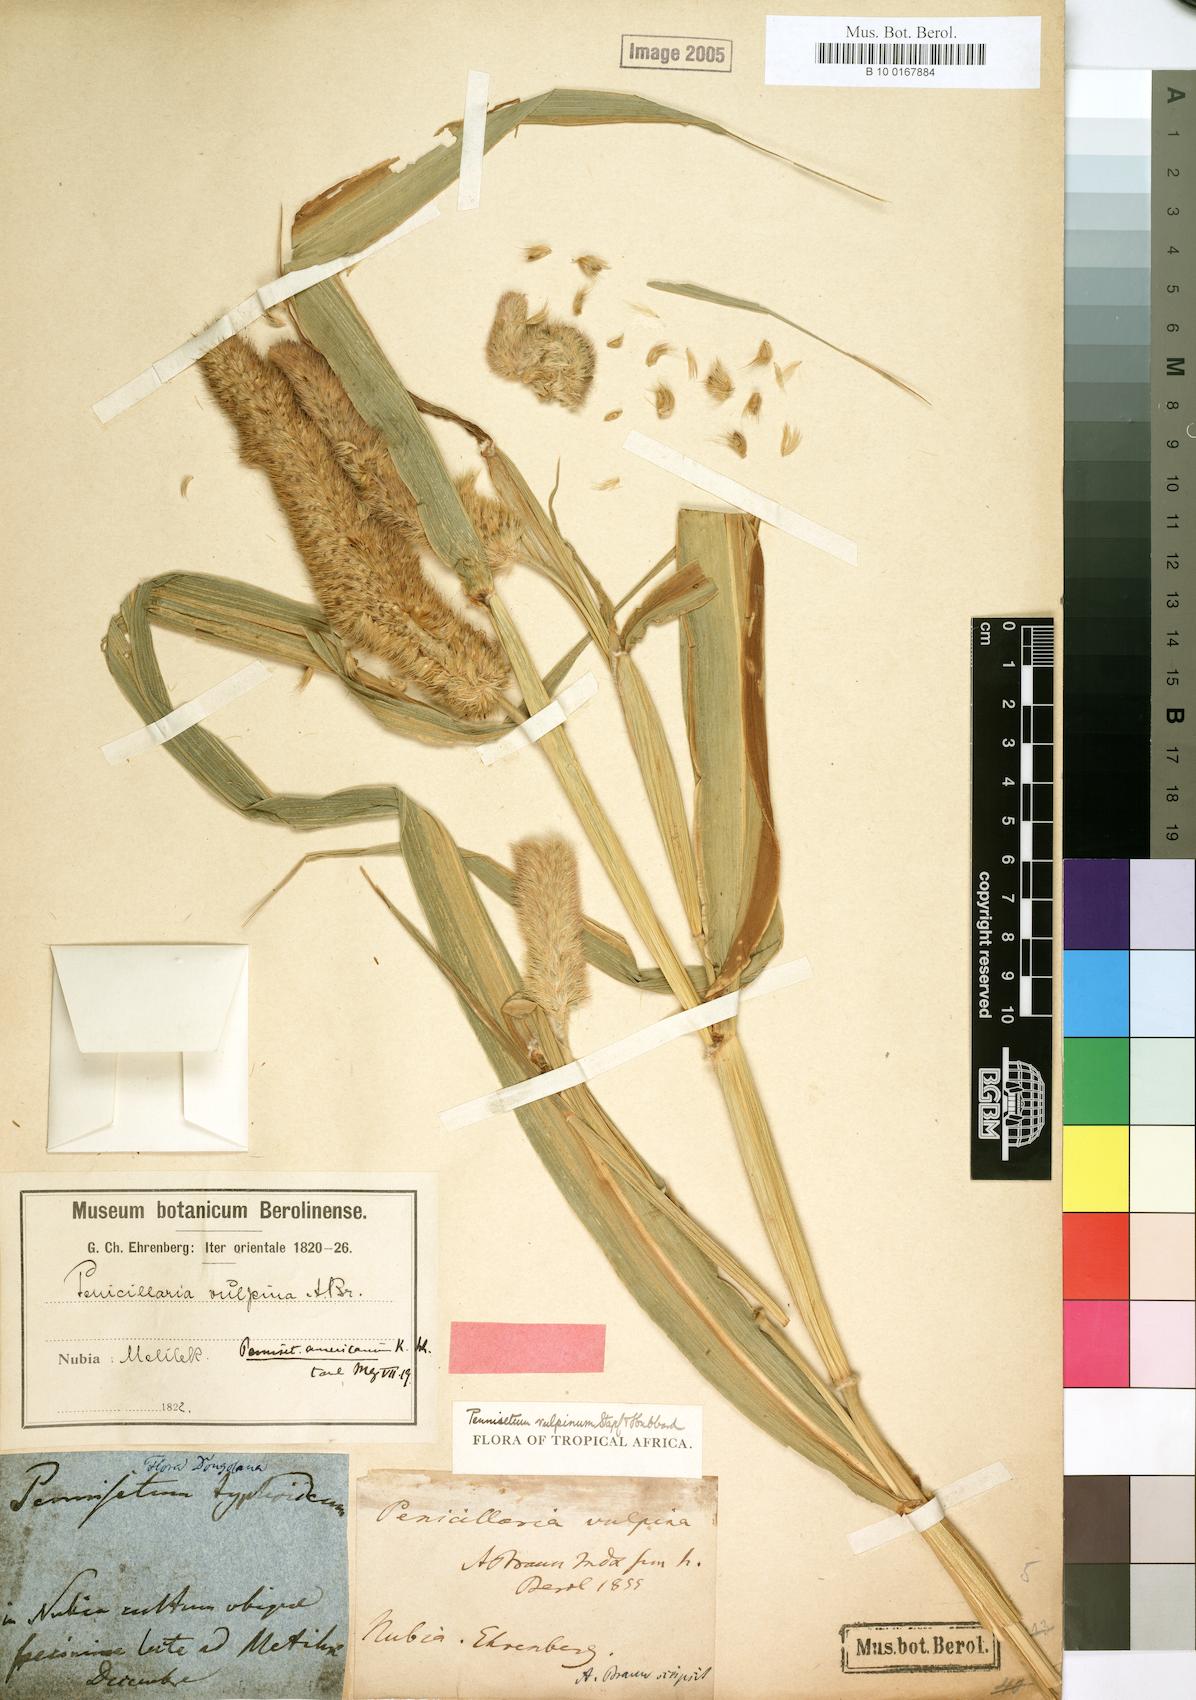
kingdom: Plantae
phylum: Tracheophyta
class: Liliopsida
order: Poales
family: Poaceae
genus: Cenchrus
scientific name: Cenchrus sieberianus
